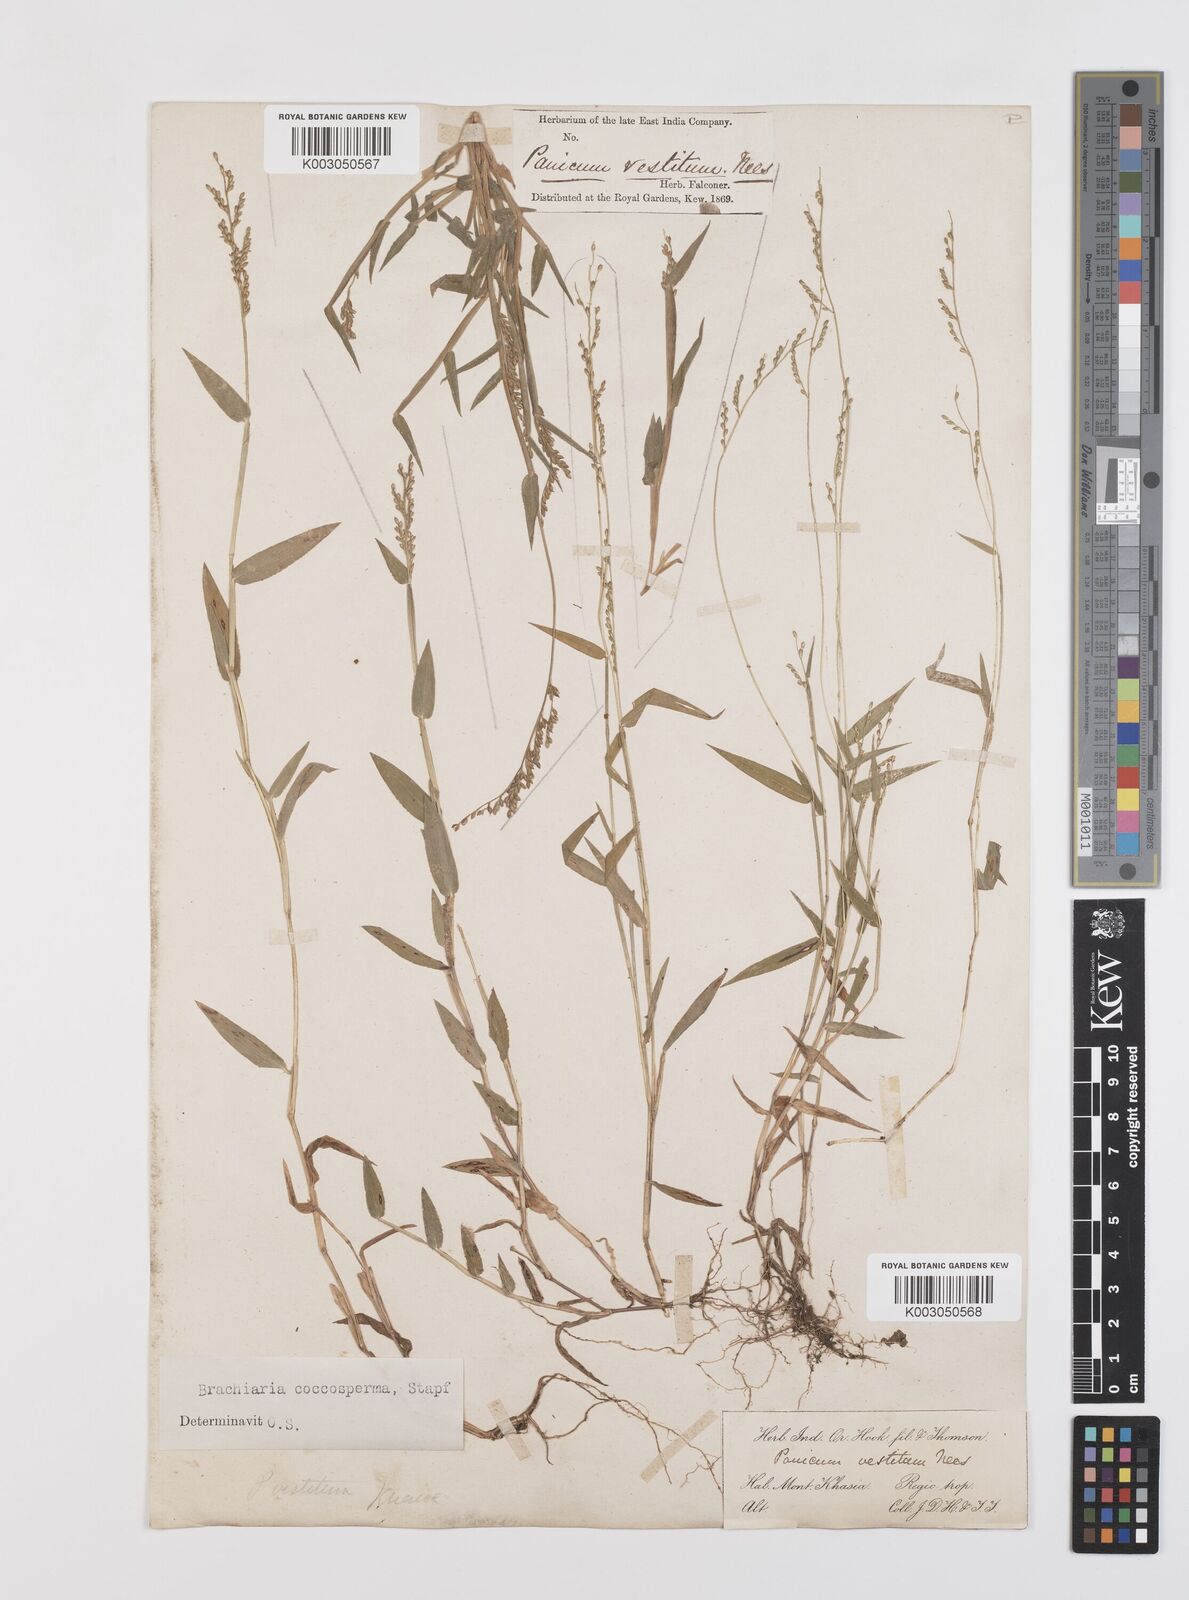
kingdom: Plantae
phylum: Tracheophyta
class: Liliopsida
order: Poales
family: Poaceae
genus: Urochloa
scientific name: Urochloa villosa
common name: Hairy signalgrass
